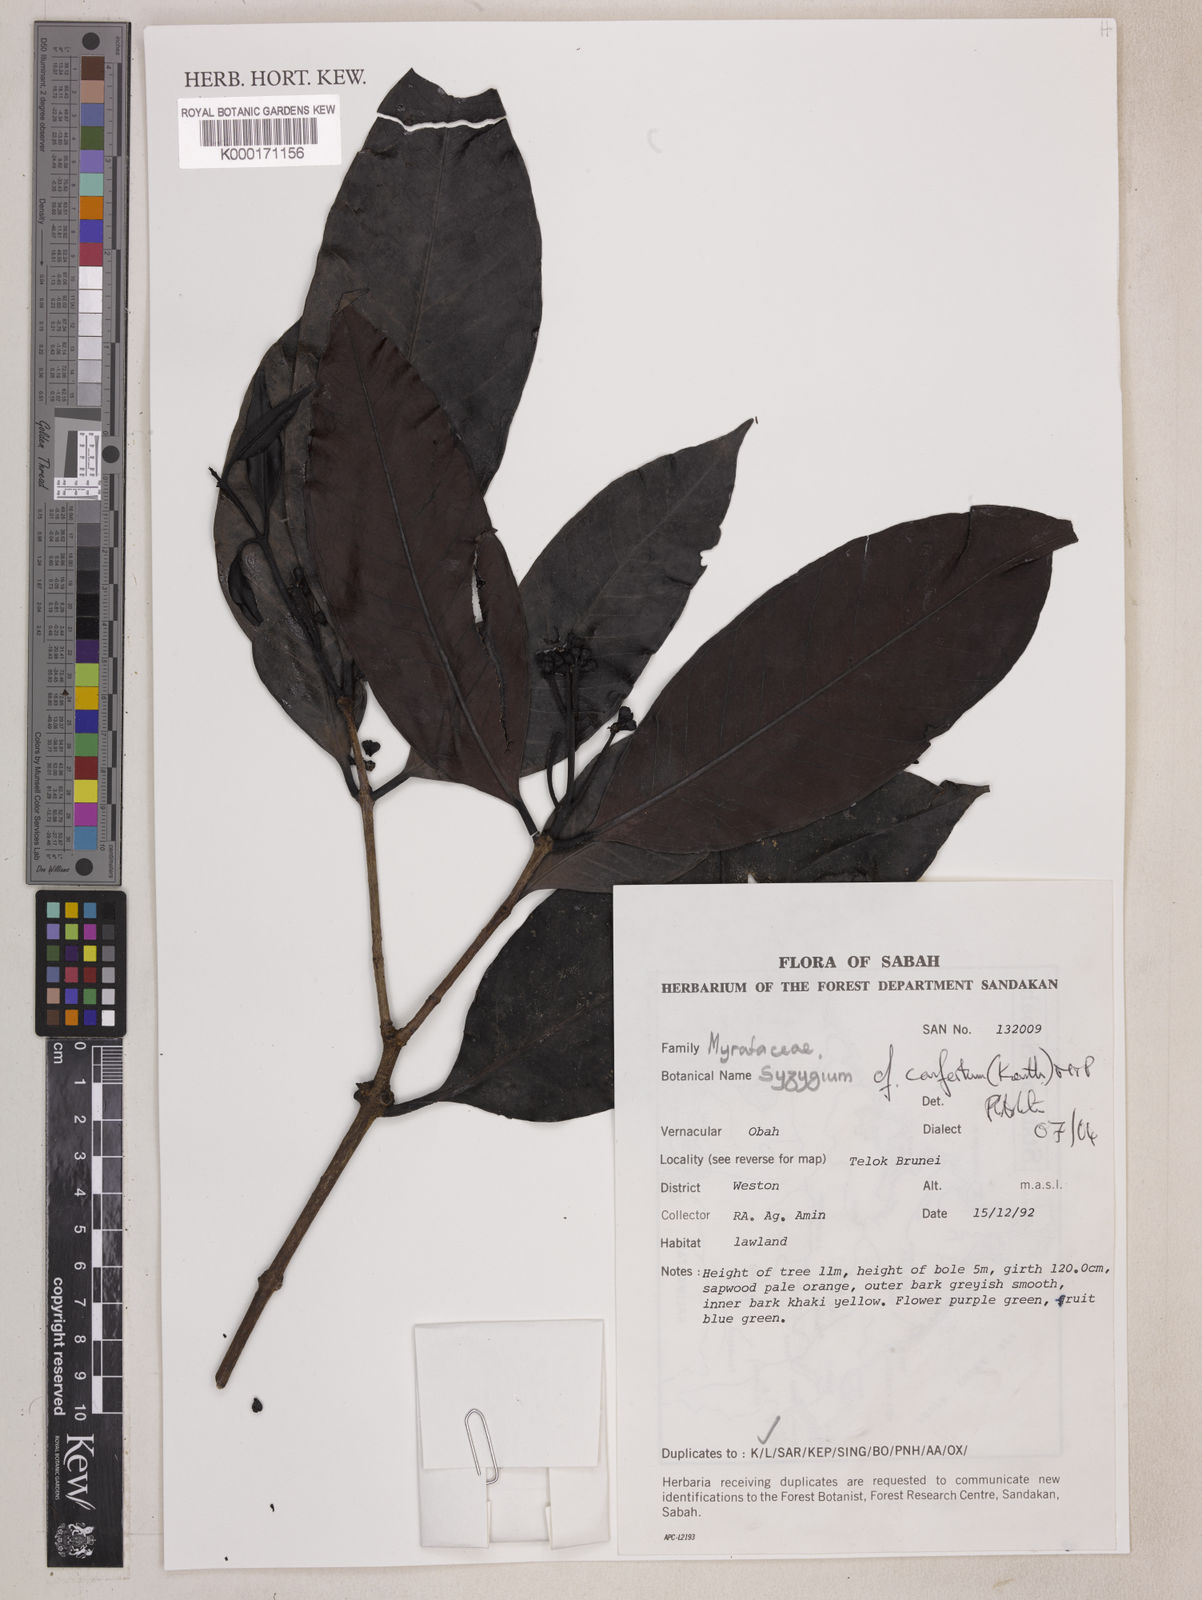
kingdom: Plantae
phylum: Tracheophyta
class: Magnoliopsida
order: Myrtales
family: Myrtaceae
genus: Syzygium
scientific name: Syzygium confertum
